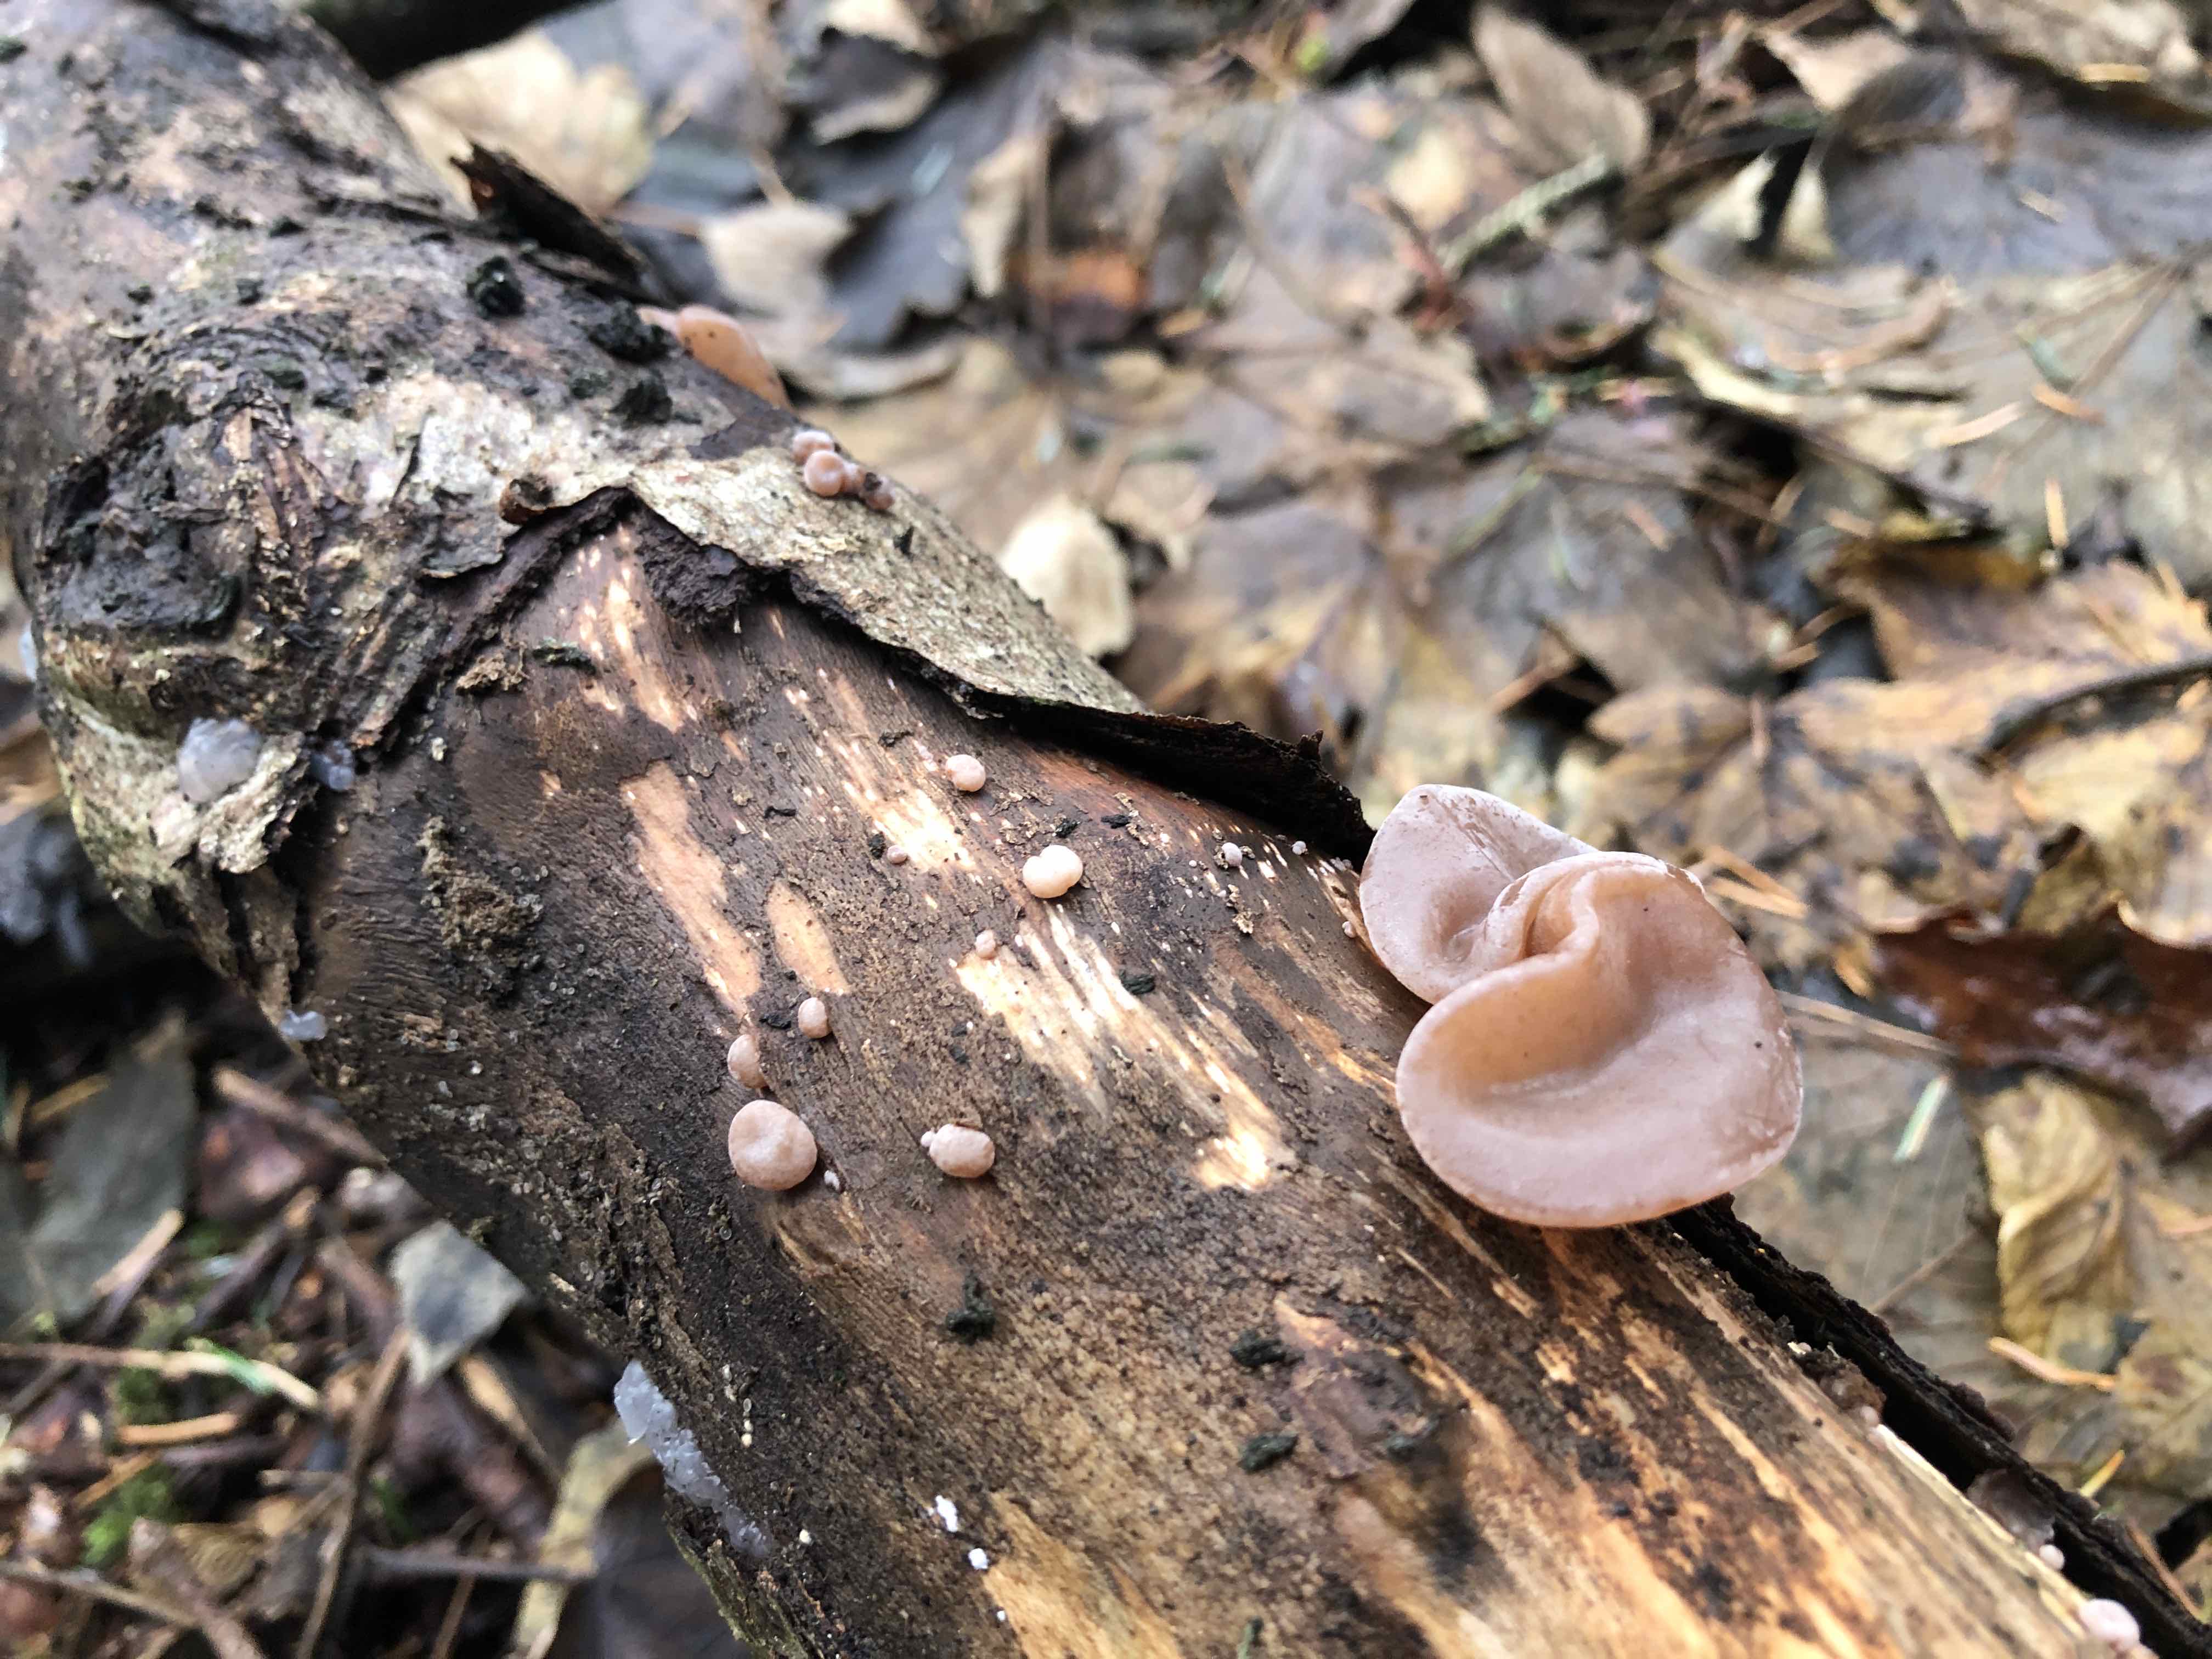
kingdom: Fungi
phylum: Basidiomycota
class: Agaricomycetes
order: Auriculariales
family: Auriculariaceae
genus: Auricularia
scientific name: Auricularia auricula-judae
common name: almindelig judasøre
